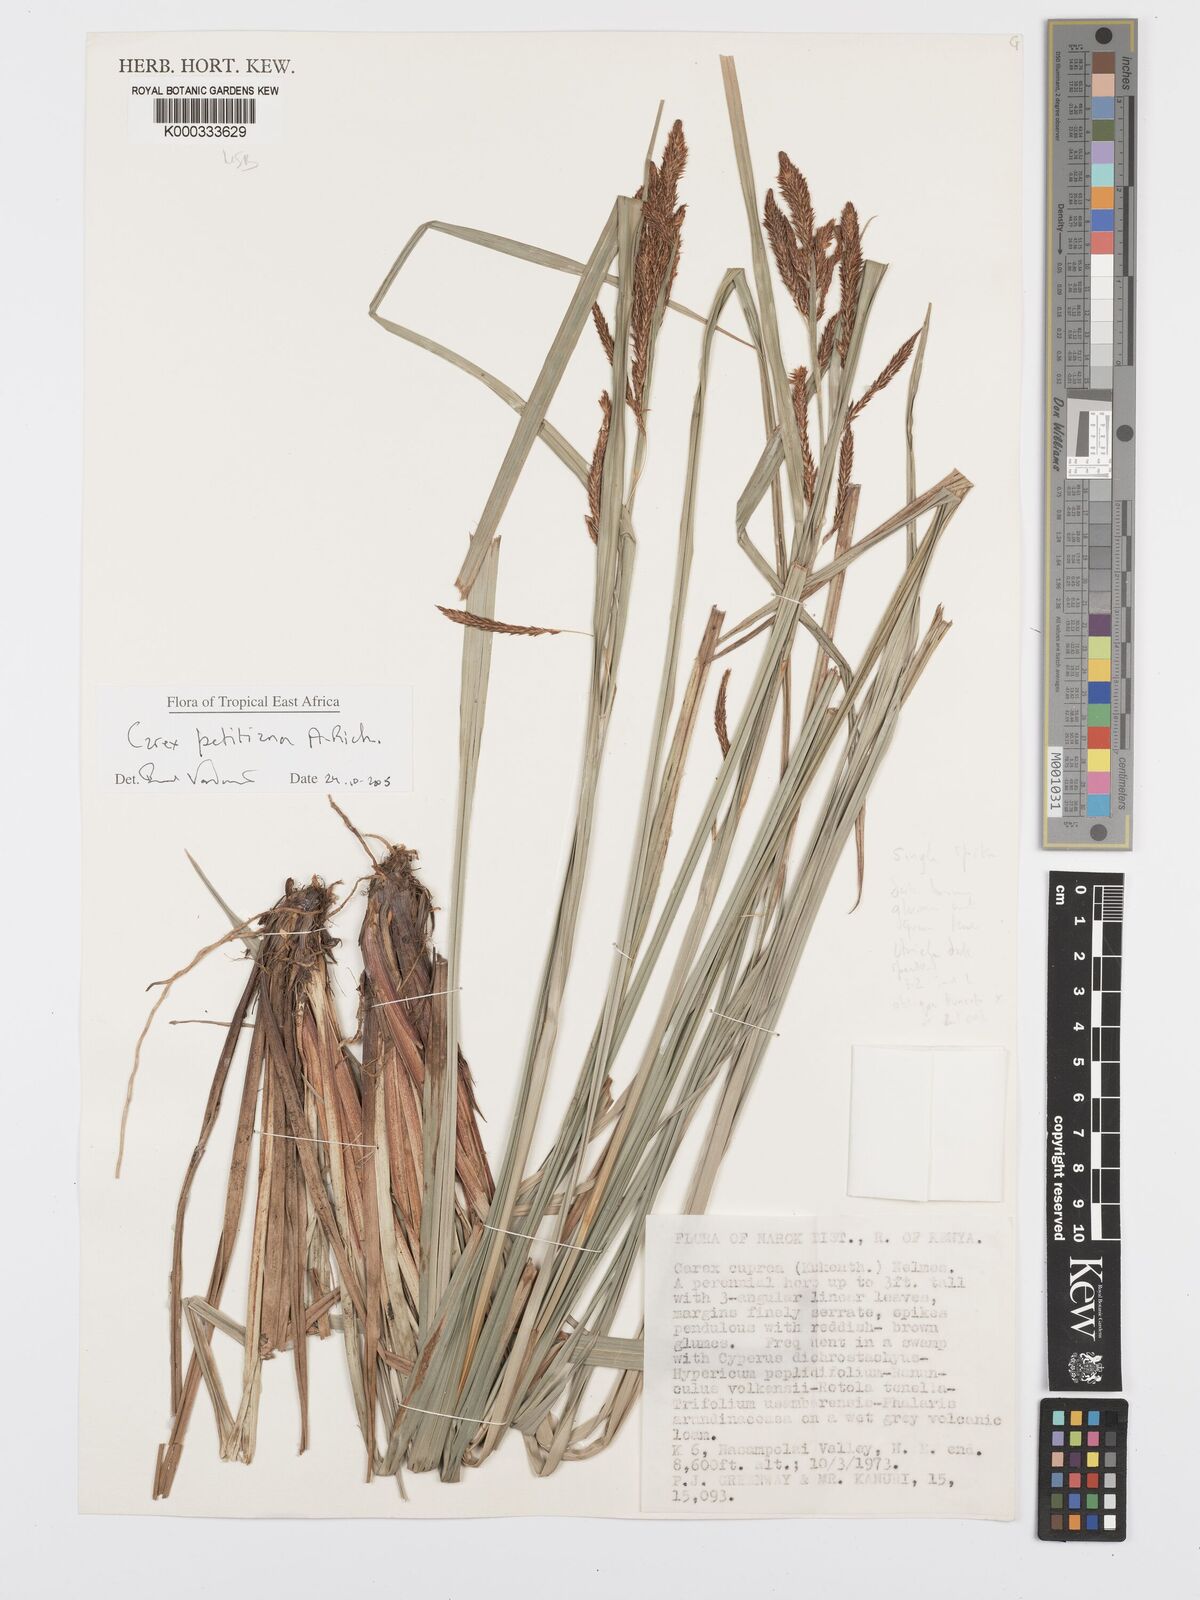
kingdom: Plantae
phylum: Tracheophyta
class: Liliopsida
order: Poales
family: Cyperaceae
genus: Carex
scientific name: Carex petitiana
